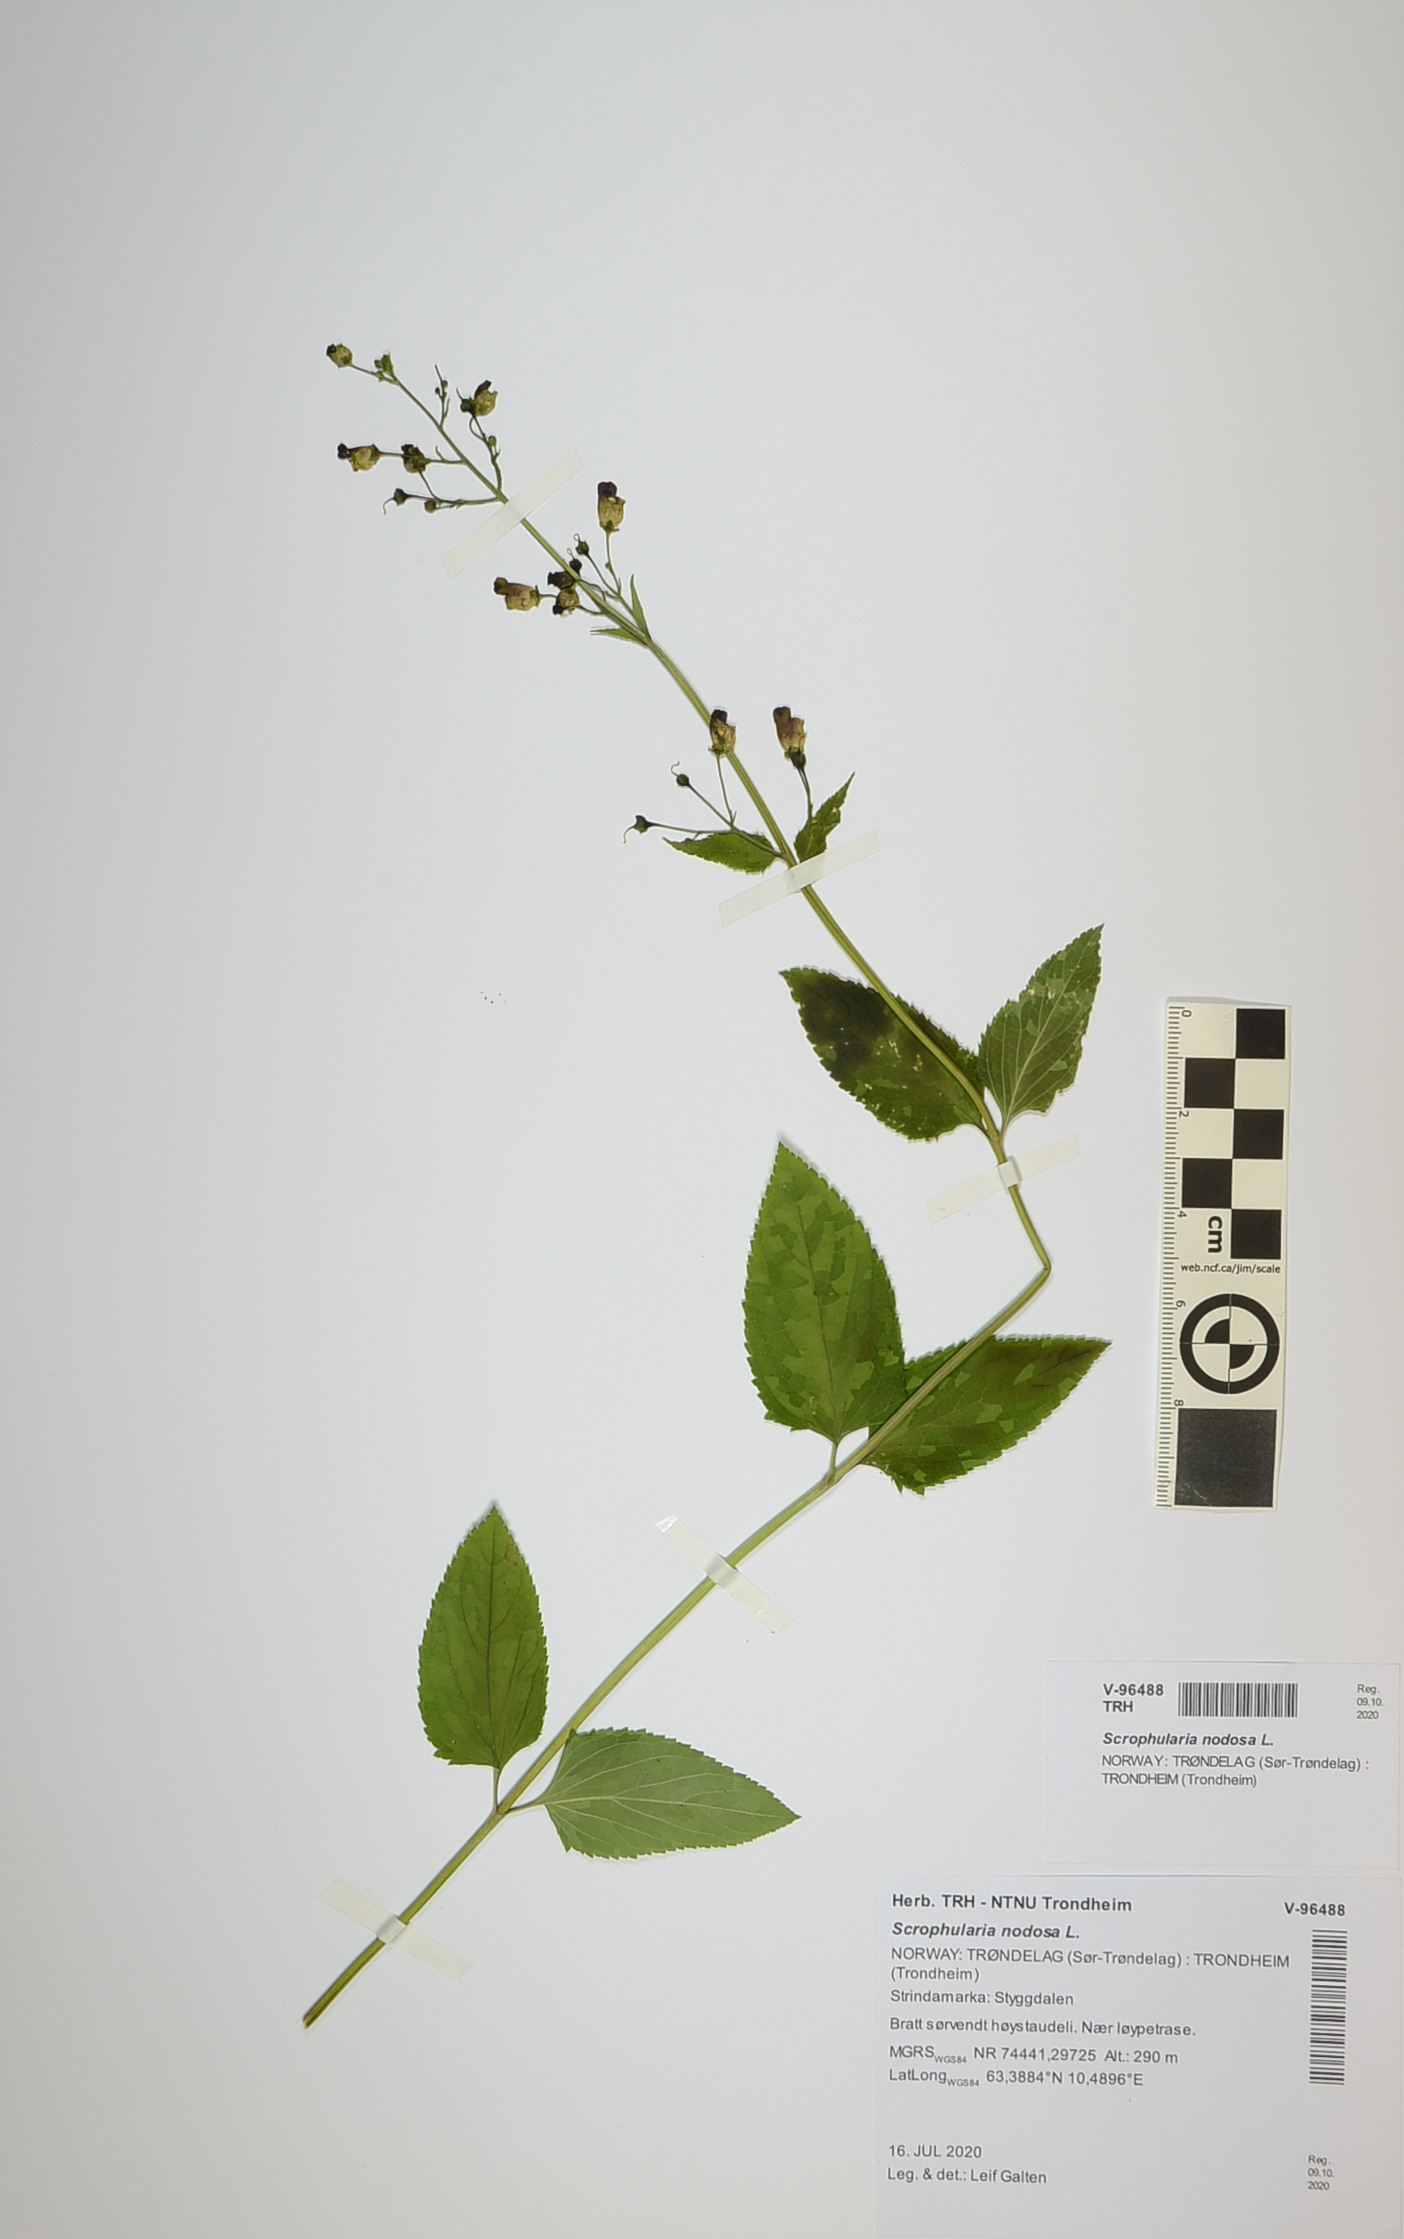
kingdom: Plantae
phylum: Tracheophyta
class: Magnoliopsida
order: Lamiales
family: Scrophulariaceae
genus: Scrophularia
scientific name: Scrophularia nodosa
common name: Common figwort
